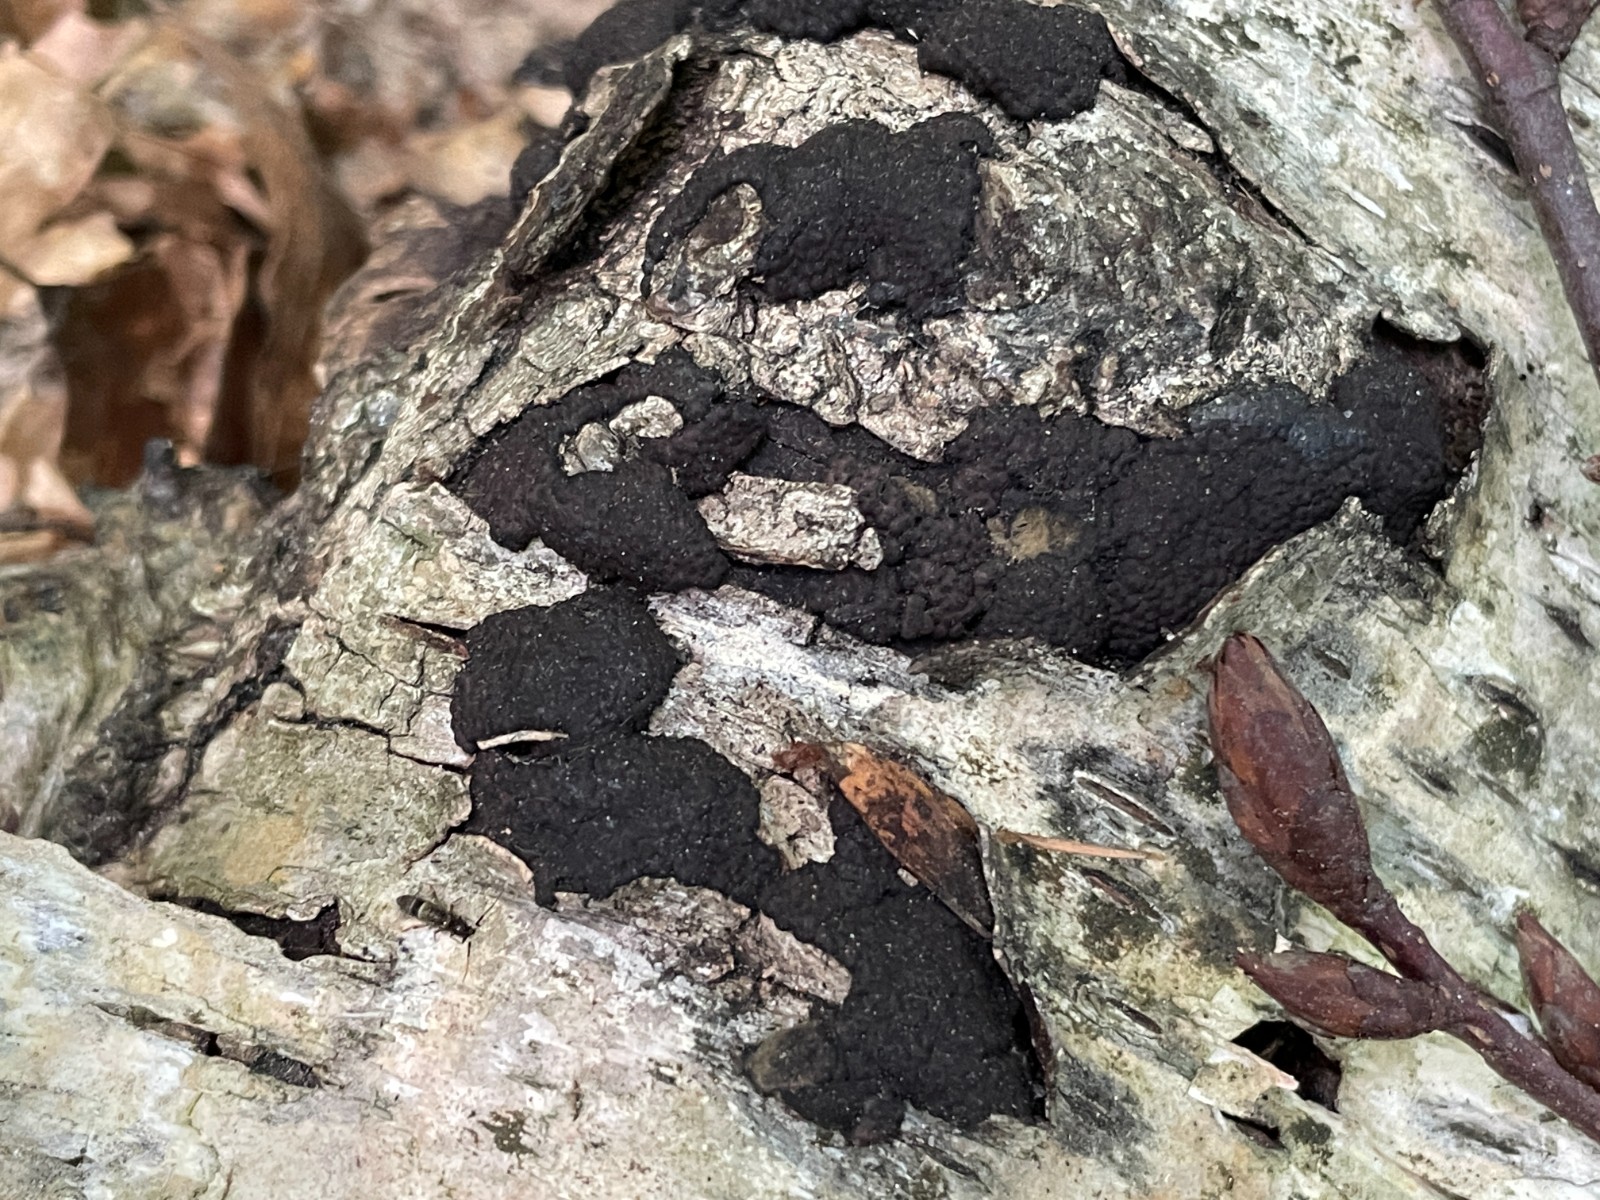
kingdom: Fungi
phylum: Ascomycota
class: Sordariomycetes
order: Xylariales
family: Hypoxylaceae
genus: Jackrogersella
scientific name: Jackrogersella multiformis
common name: foranderlig kulbær
